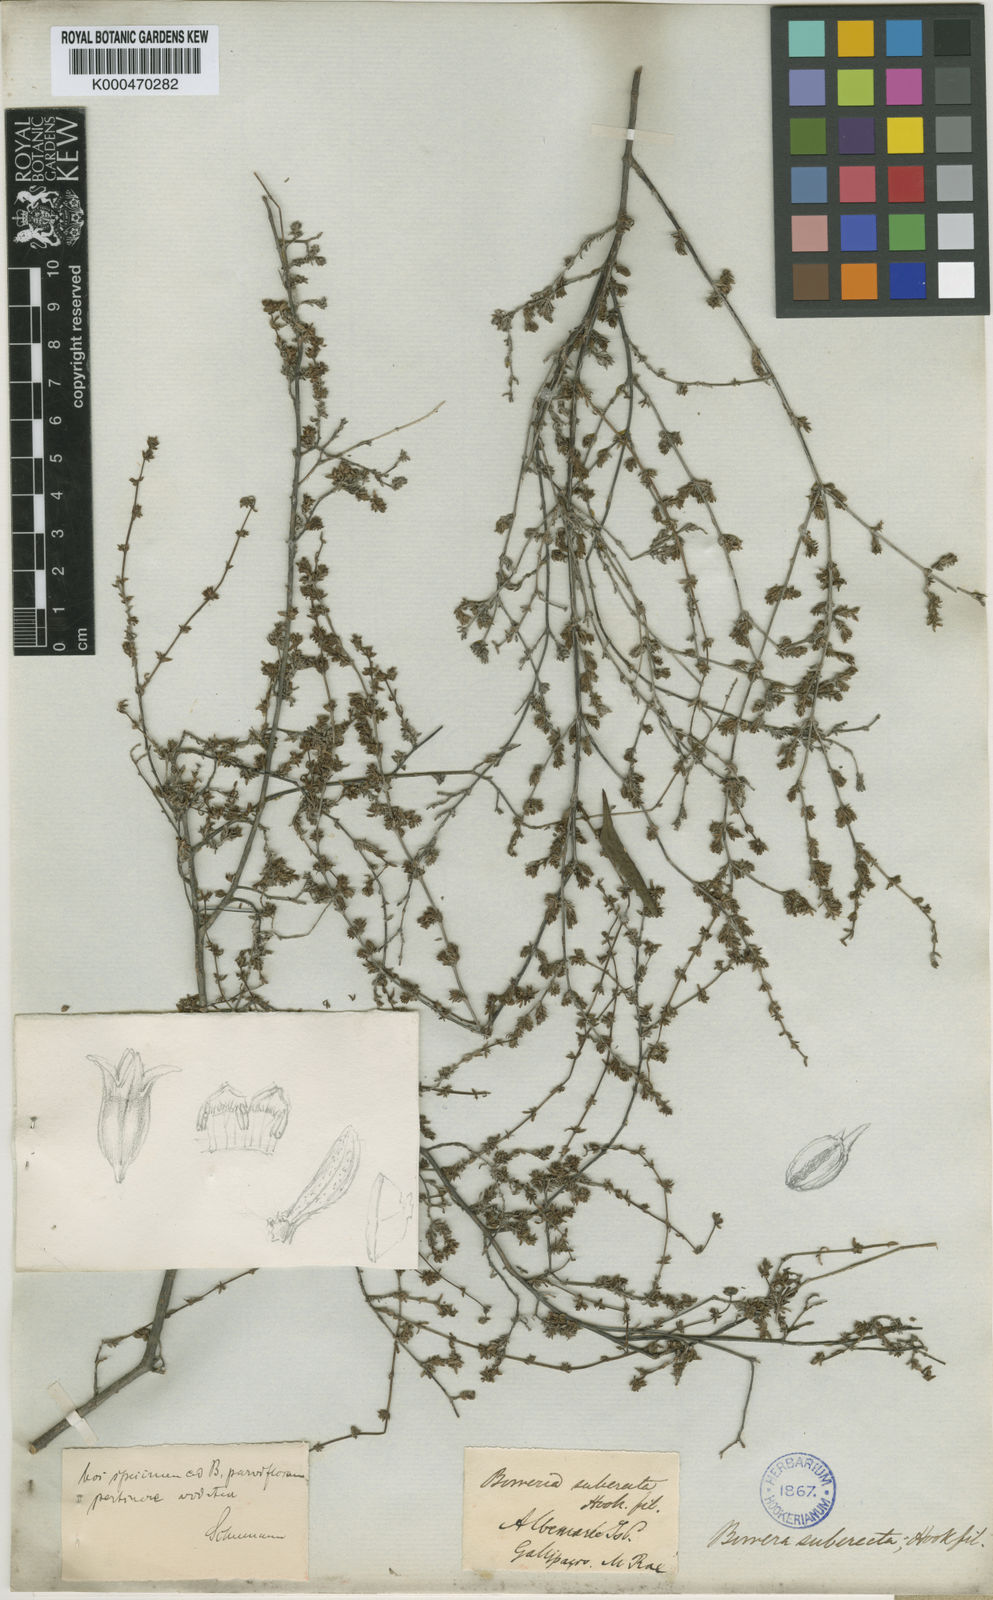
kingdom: Plantae
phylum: Tracheophyta
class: Magnoliopsida
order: Gentianales
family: Rubiaceae
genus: Spermacoce
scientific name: Spermacoce suberecta
